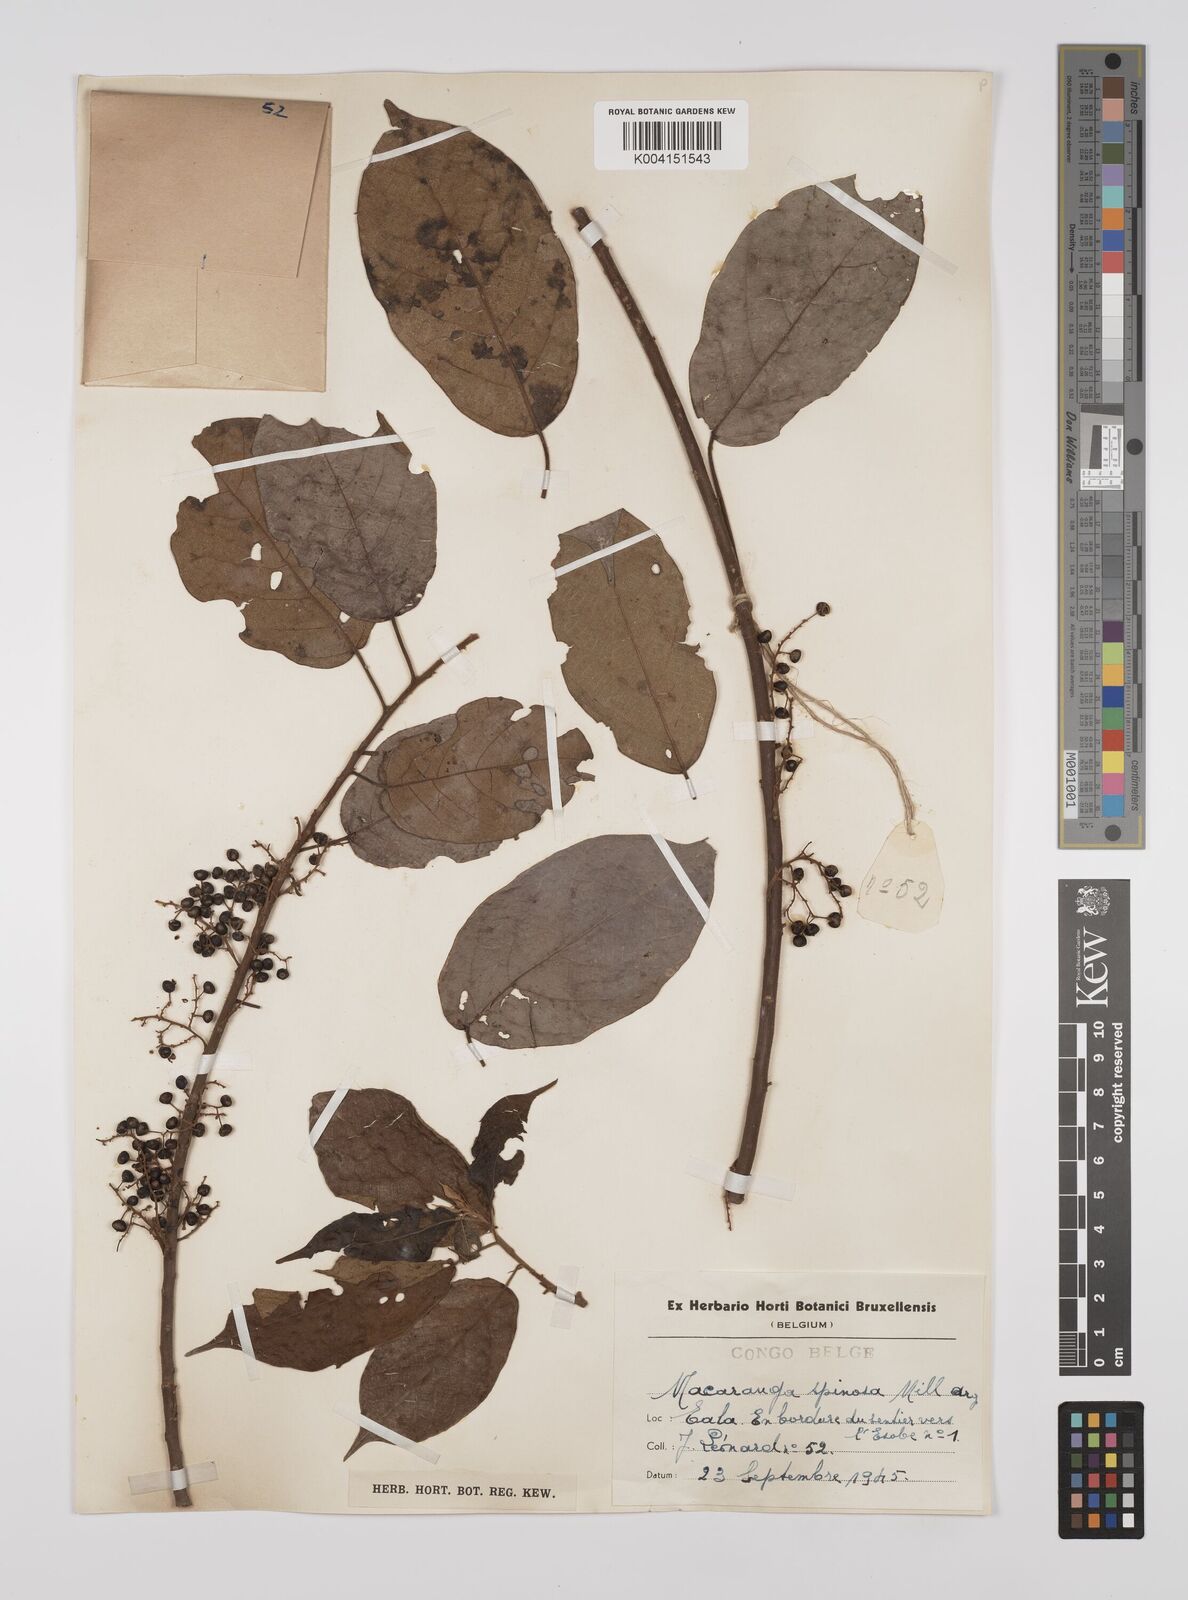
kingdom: Plantae
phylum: Tracheophyta
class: Magnoliopsida
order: Malpighiales
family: Euphorbiaceae
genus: Macaranga
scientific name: Macaranga spinosa
